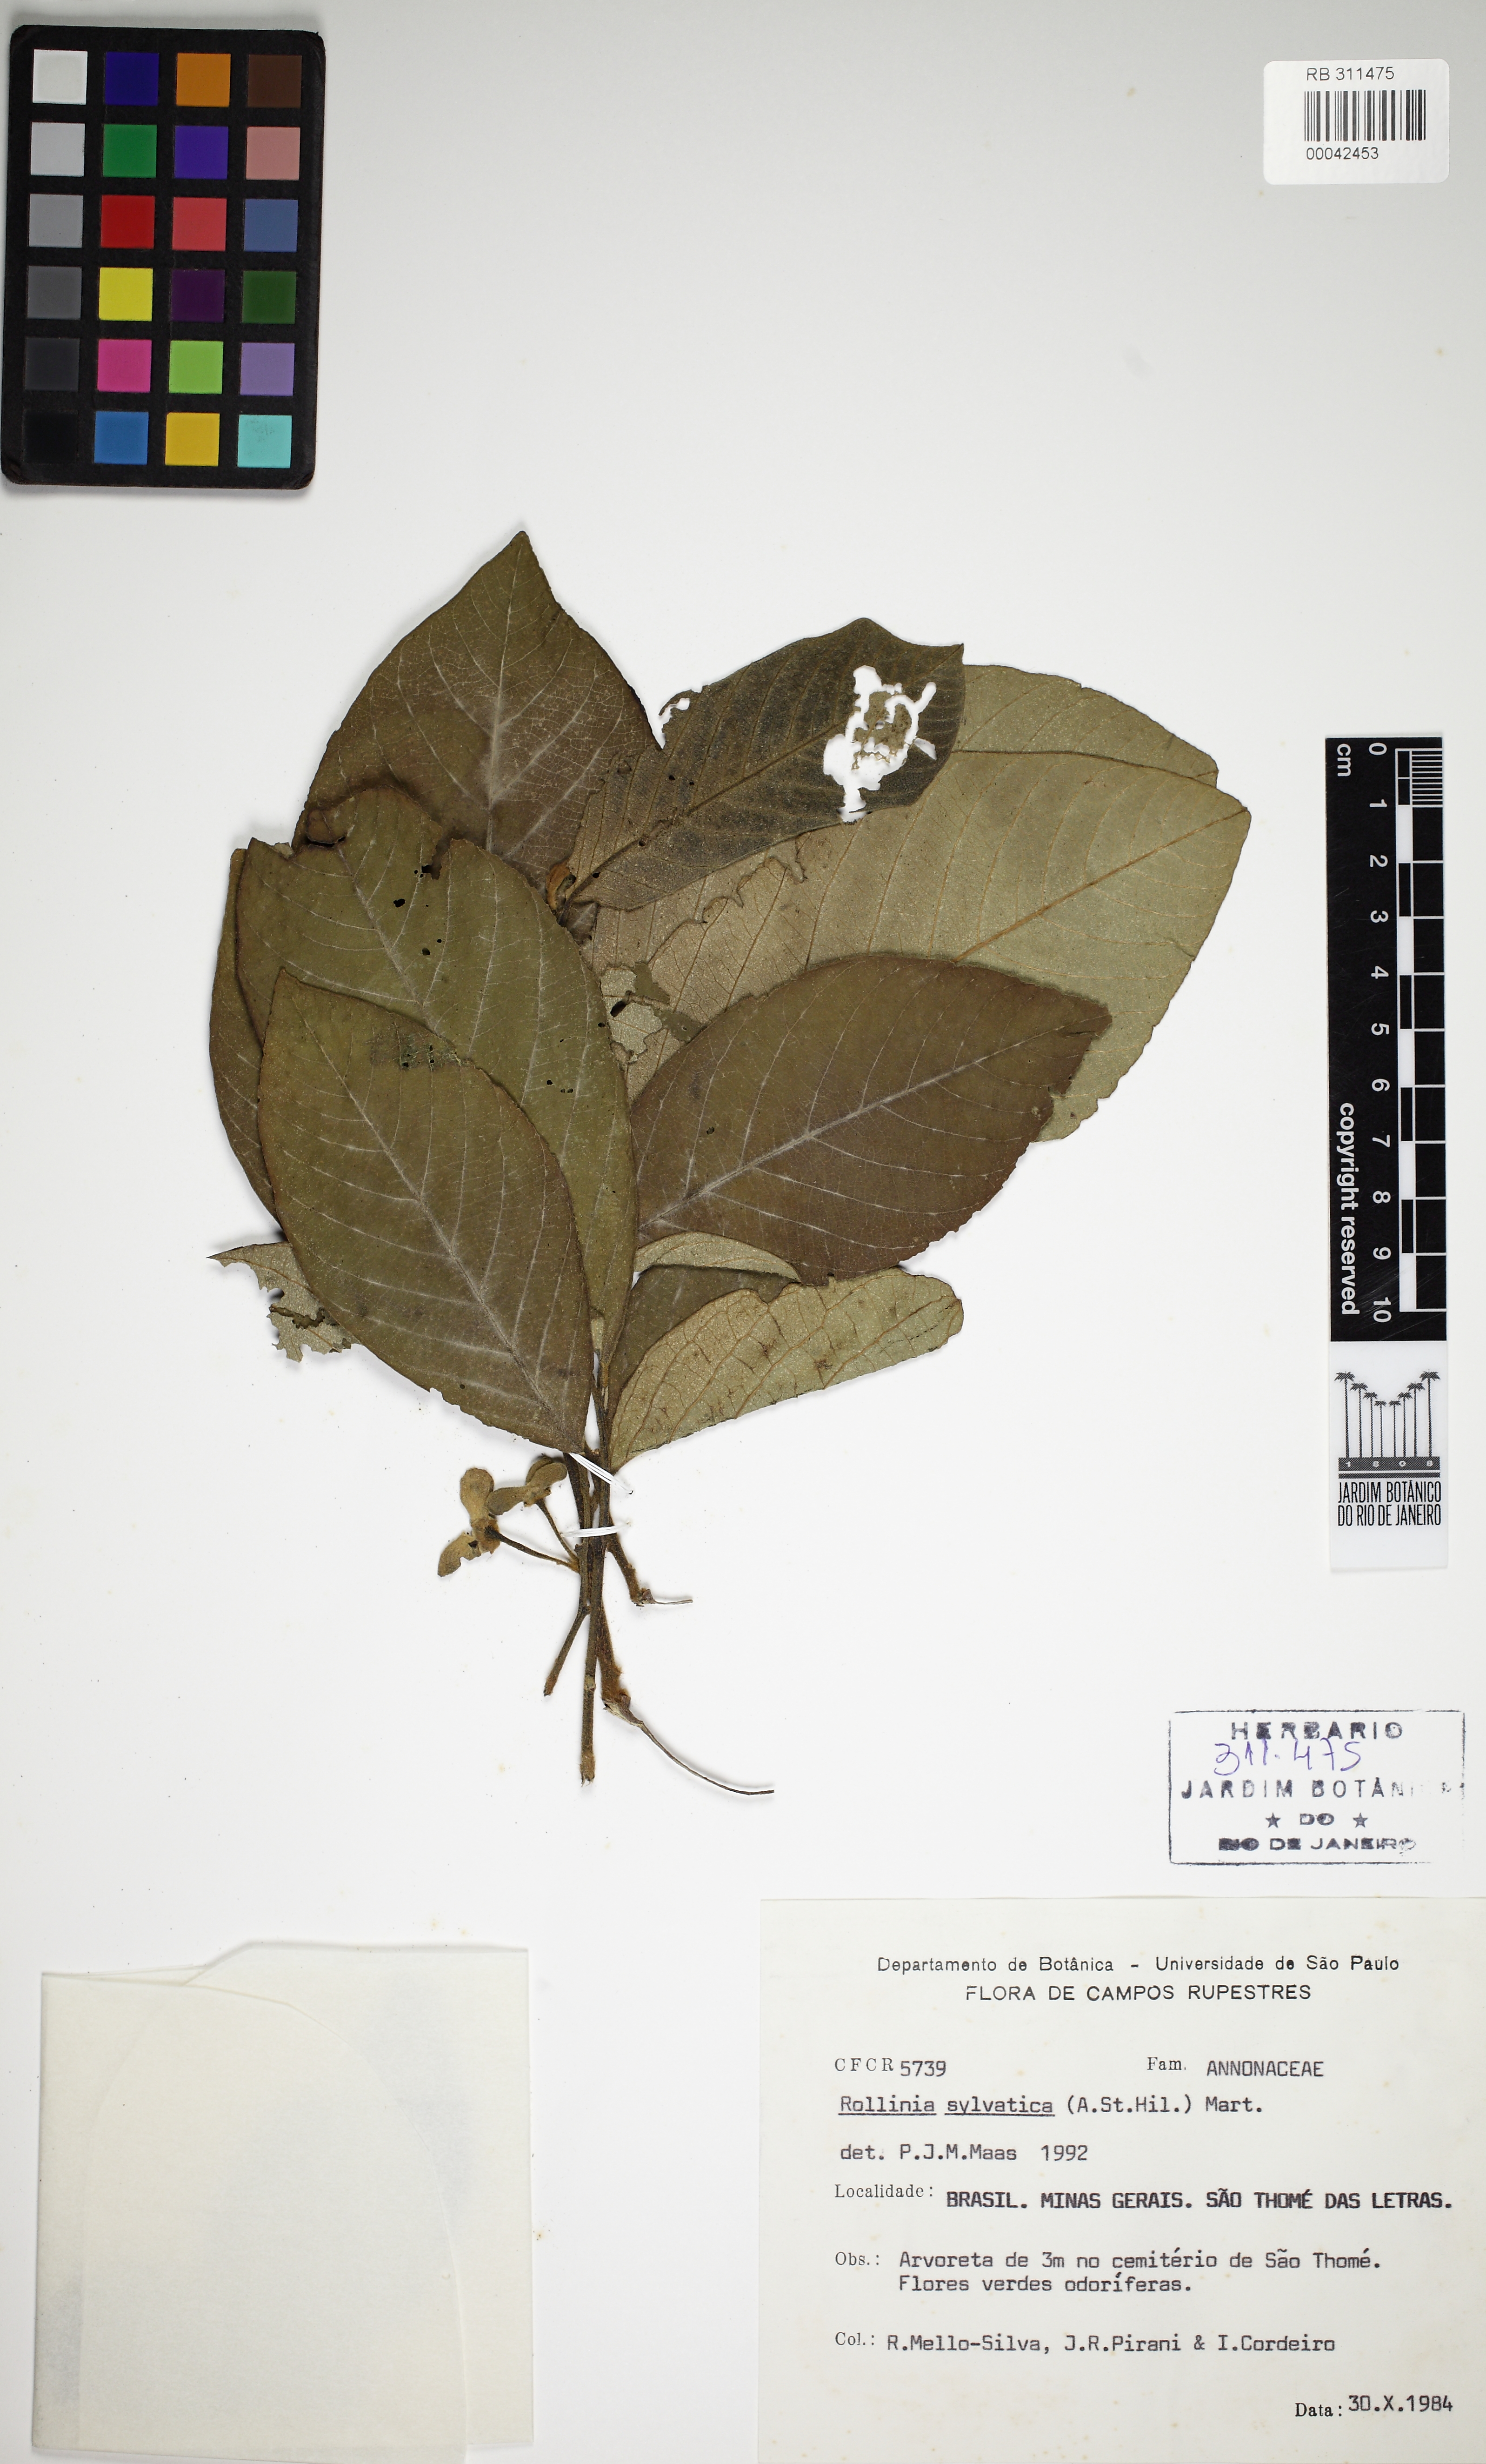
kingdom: Plantae
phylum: Tracheophyta
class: Magnoliopsida
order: Magnoliales
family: Annonaceae
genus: Annona
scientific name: Annona sylvatica
